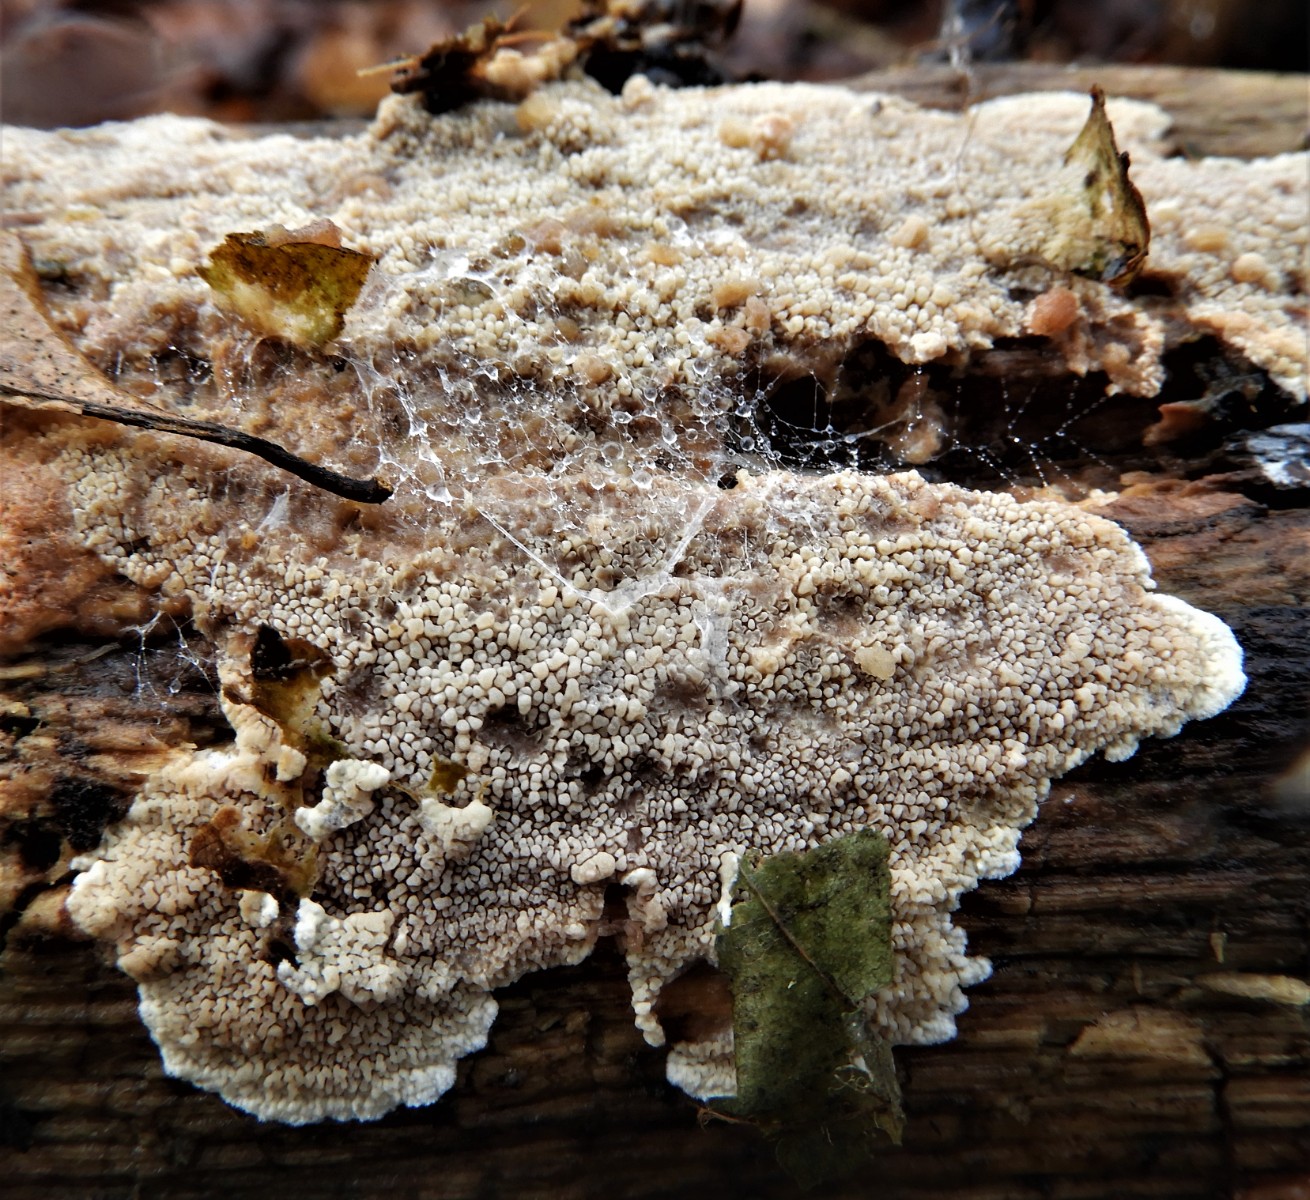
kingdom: Fungi
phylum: Basidiomycota
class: Agaricomycetes
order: Corticiales
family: Corticiaceae
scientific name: Corticiaceae
